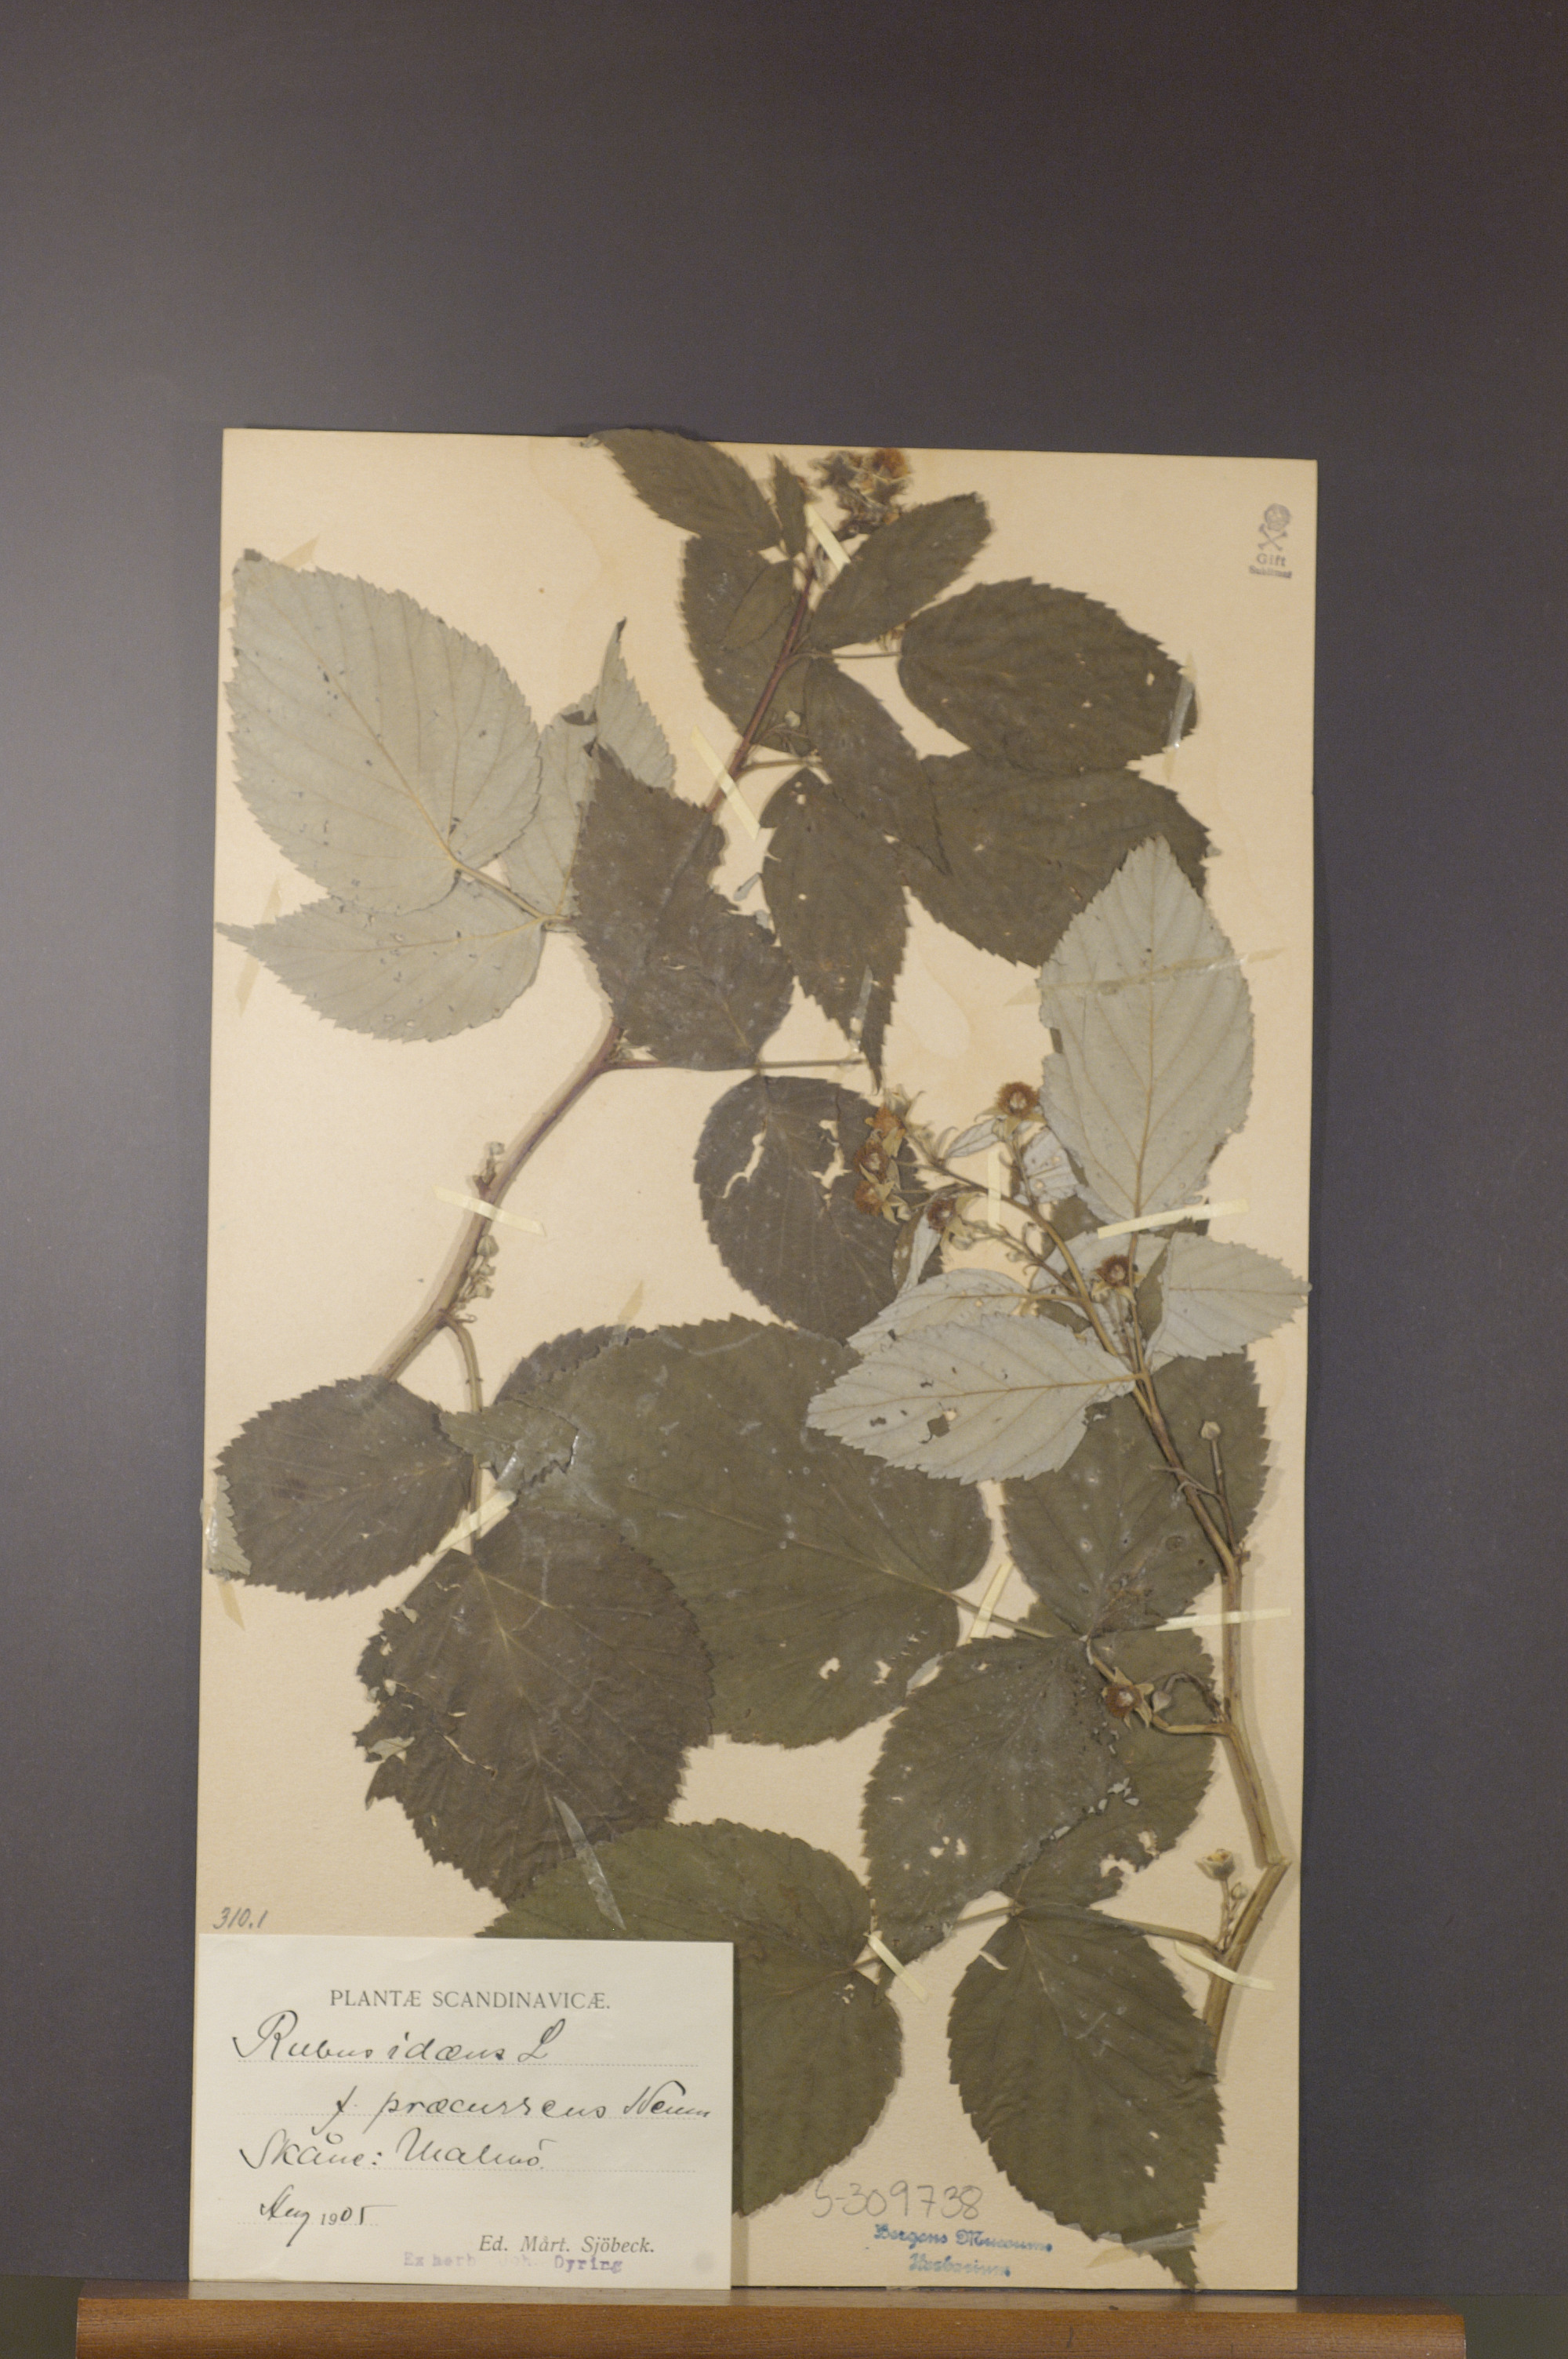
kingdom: Plantae
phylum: Tracheophyta
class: Magnoliopsida
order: Rosales
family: Rosaceae
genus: Rubus
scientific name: Rubus idaeus
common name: Raspberry
